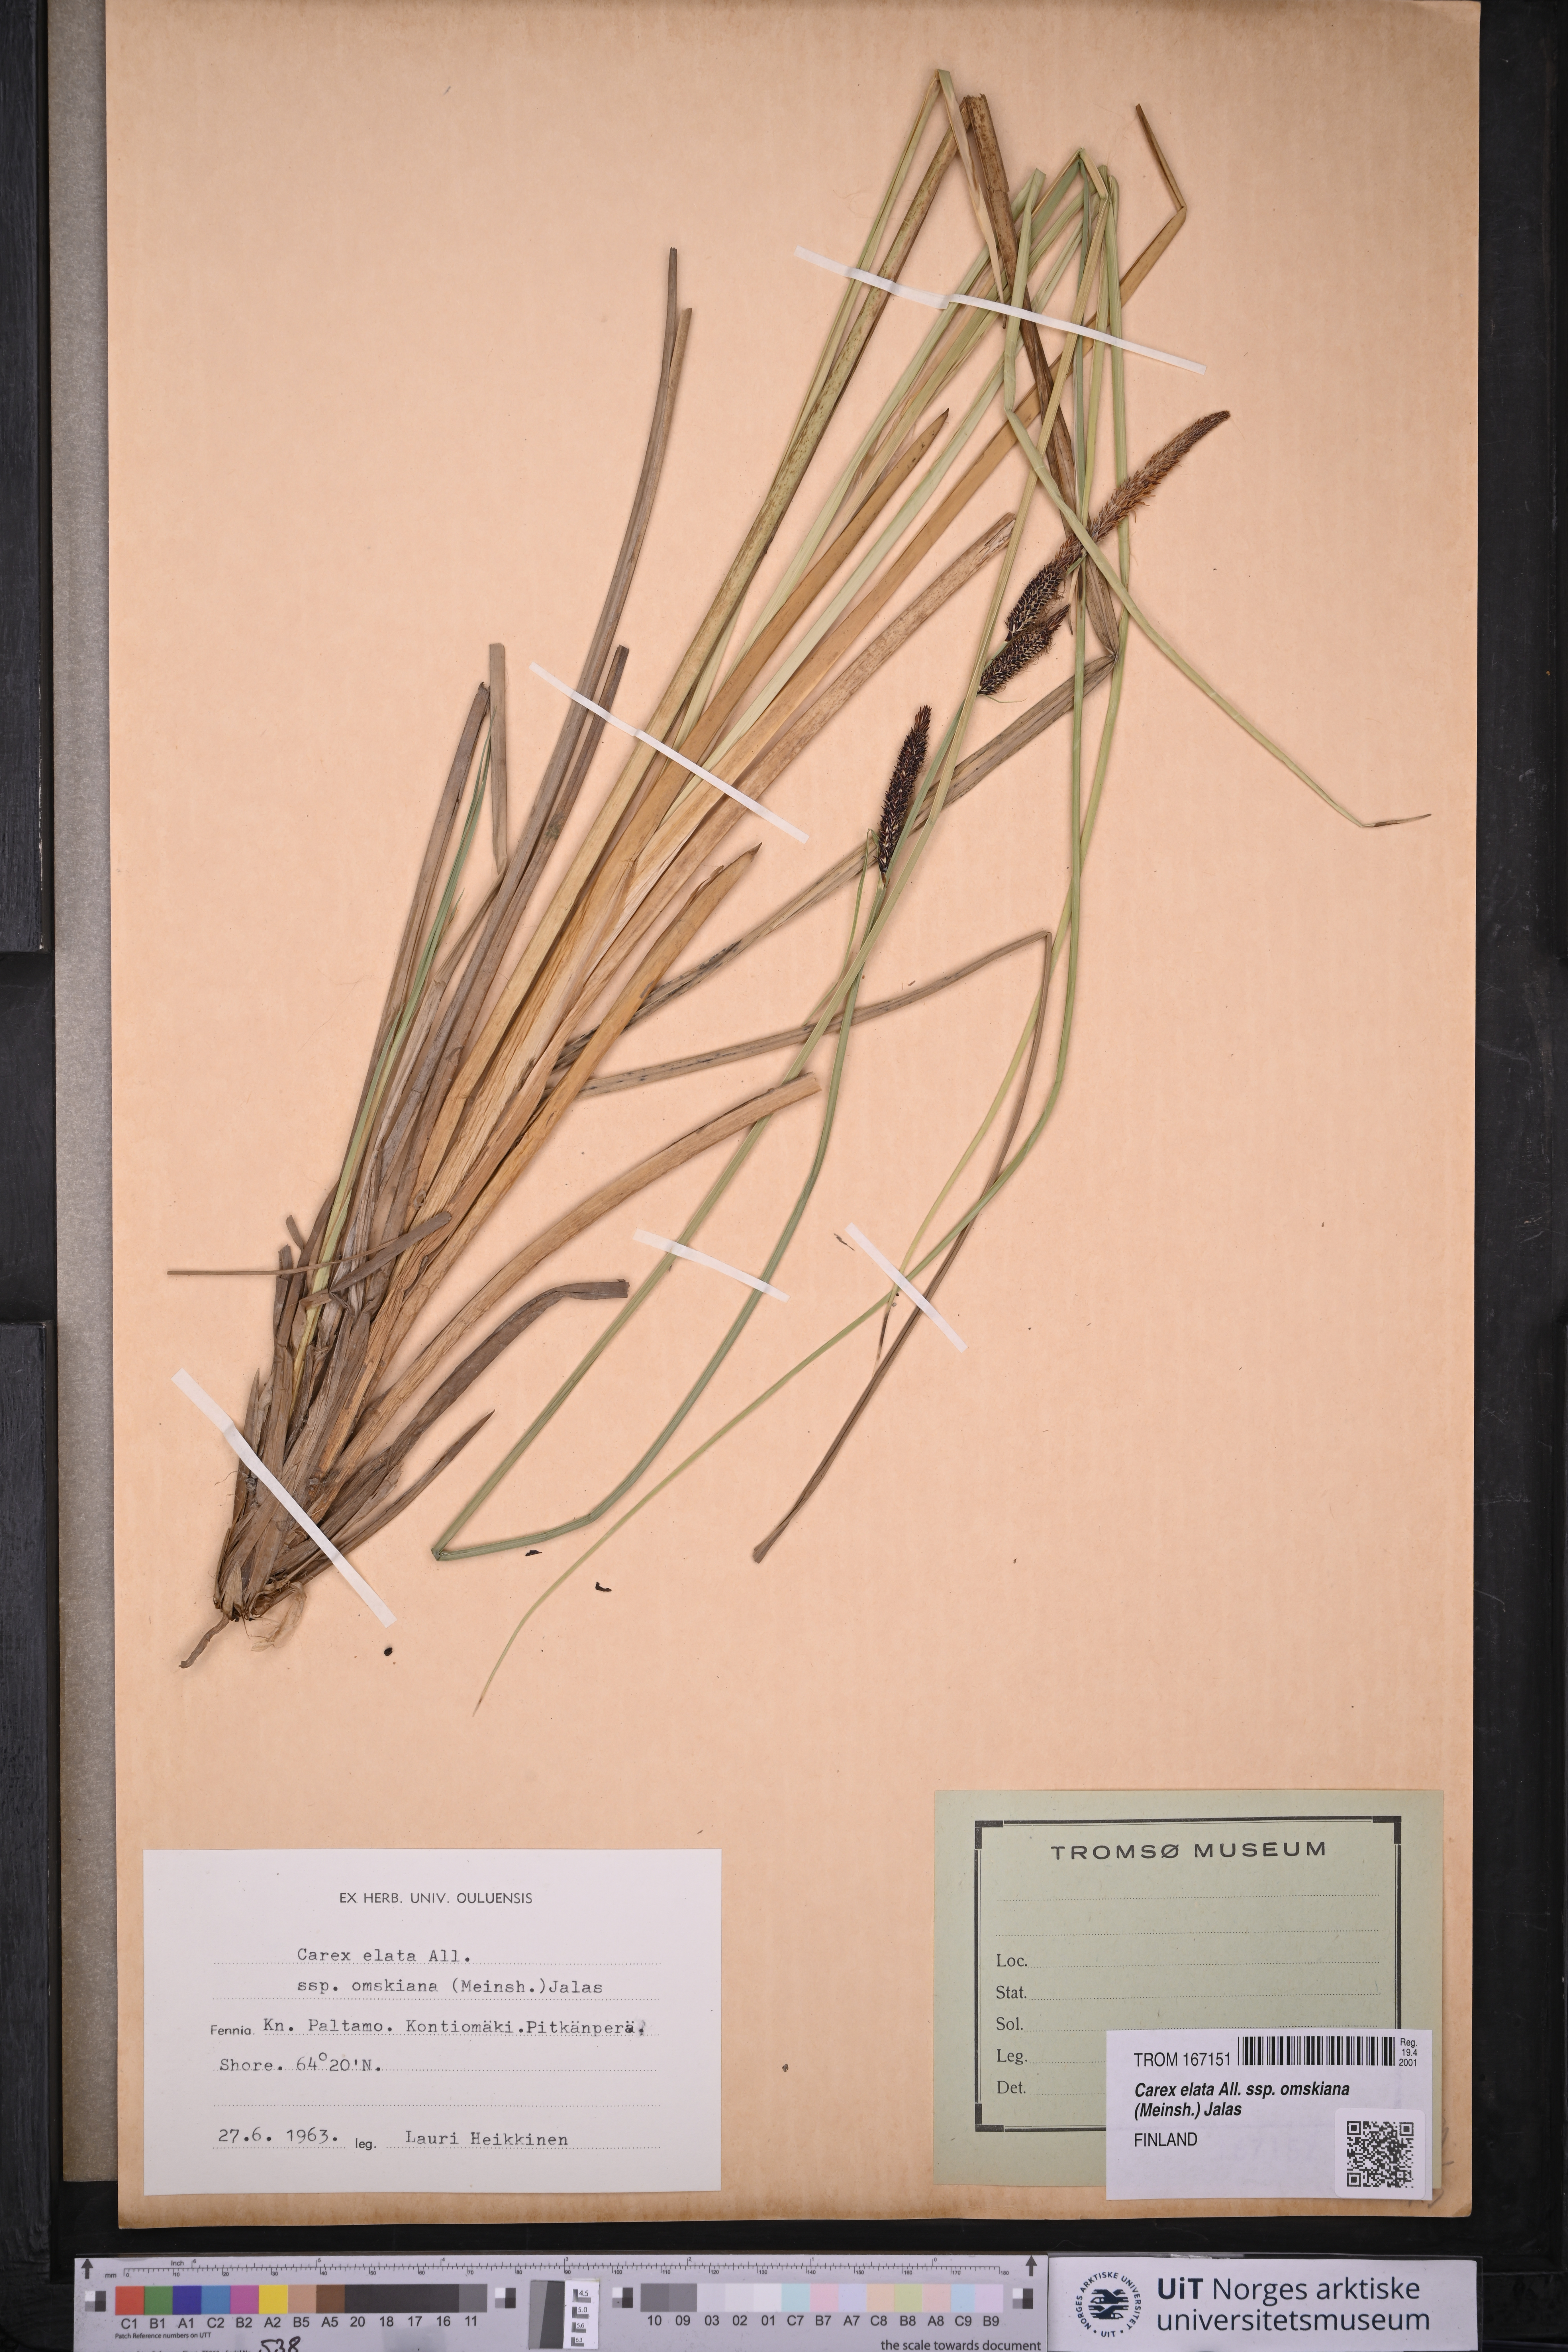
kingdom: Plantae
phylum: Tracheophyta
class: Liliopsida
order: Poales
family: Cyperaceae
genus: Carex
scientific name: Carex elata
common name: Tufted sedge
